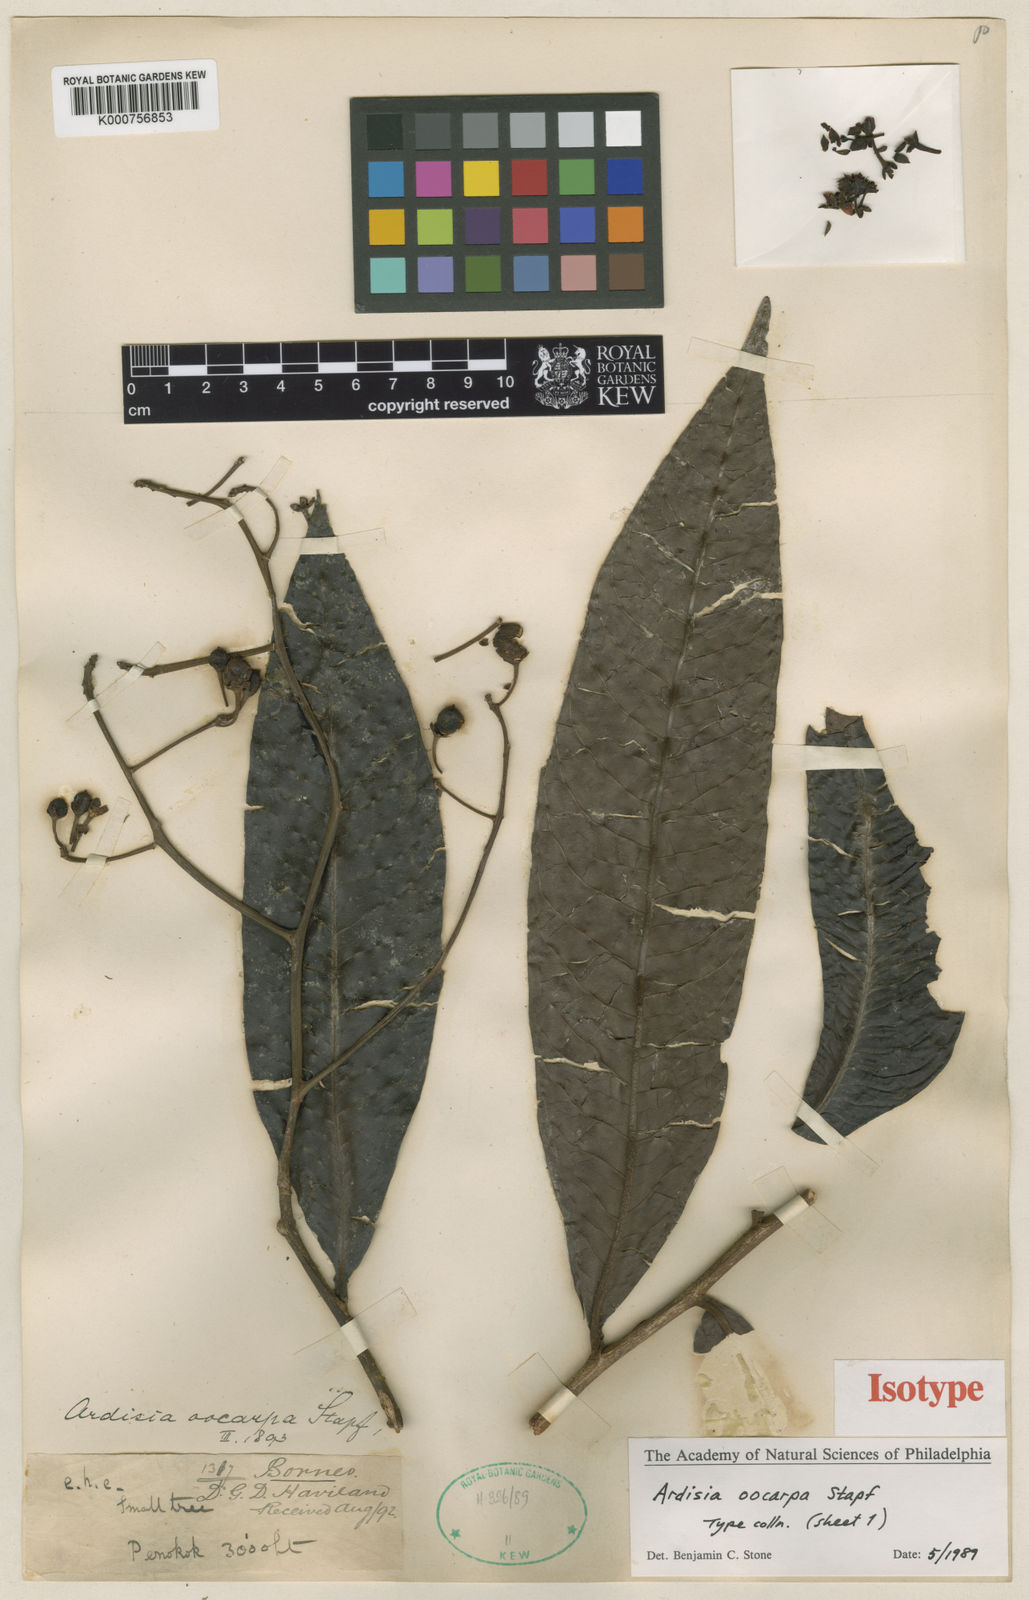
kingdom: Plantae
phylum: Tracheophyta
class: Magnoliopsida
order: Ericales
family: Primulaceae
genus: Ardisia
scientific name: Ardisia oocarpa
